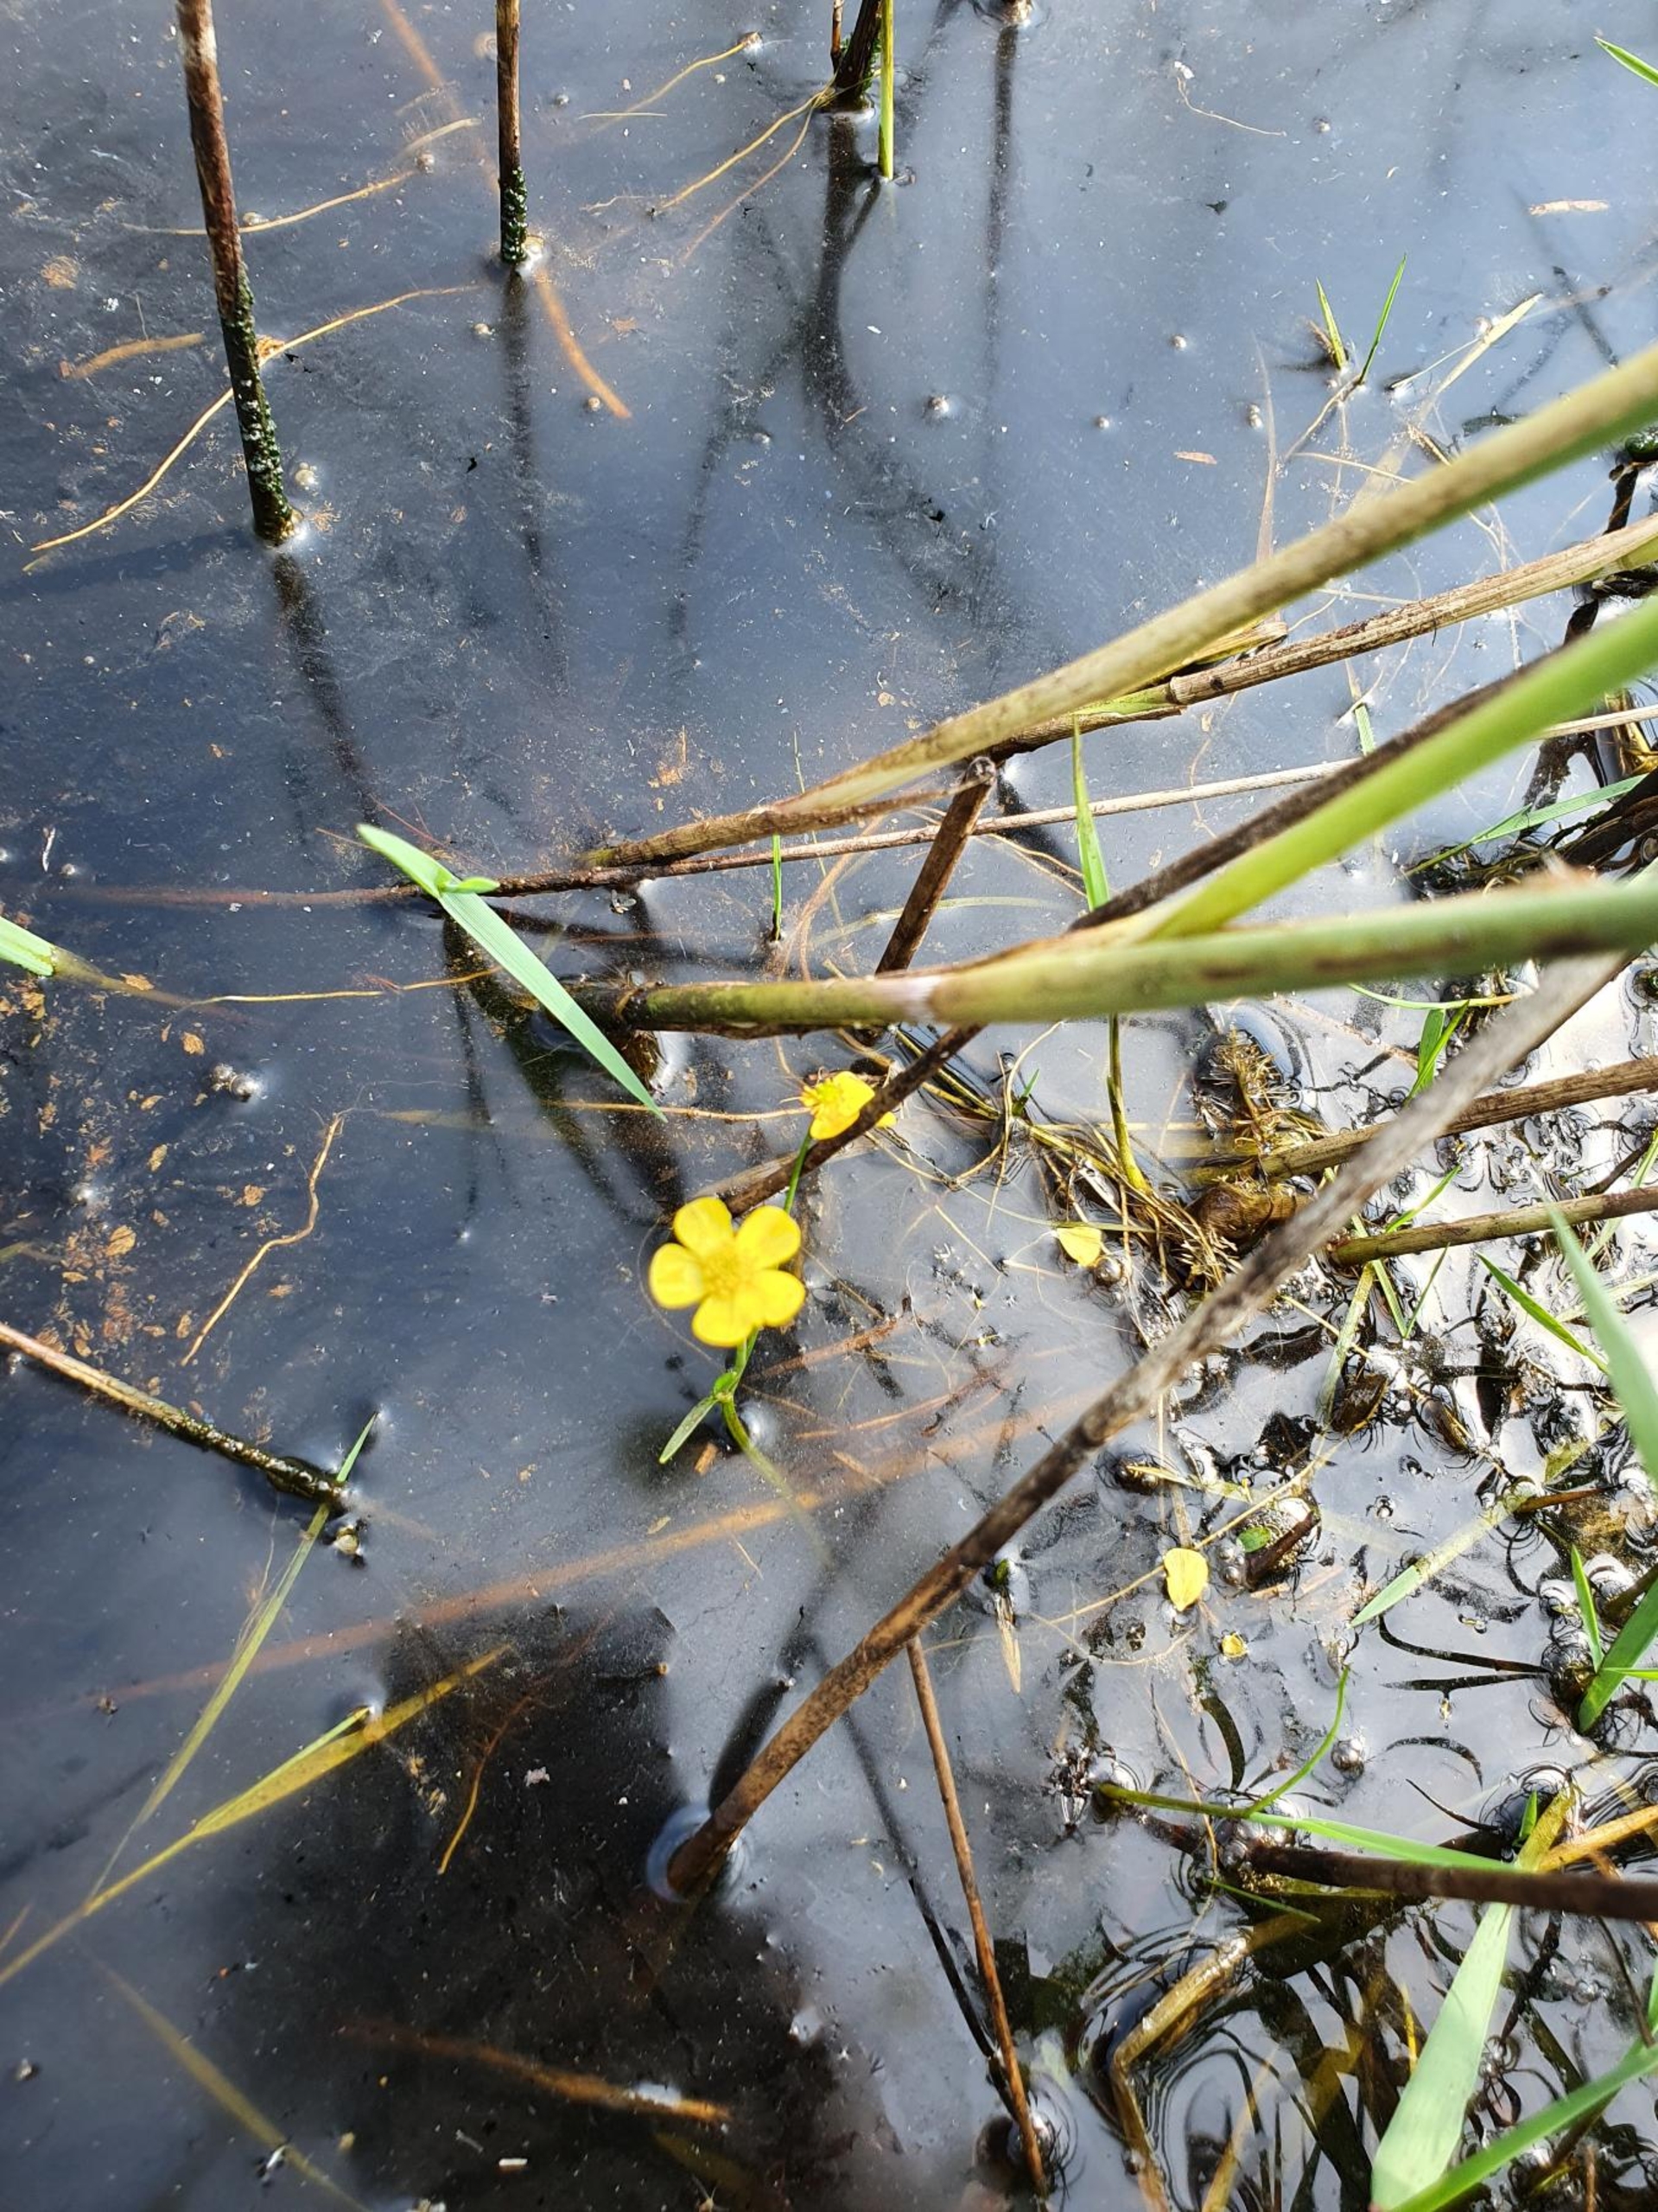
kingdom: Plantae
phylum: Tracheophyta
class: Magnoliopsida
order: Ranunculales
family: Ranunculaceae
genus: Ranunculus
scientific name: Ranunculus flammula
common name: Kær-ranunkel
